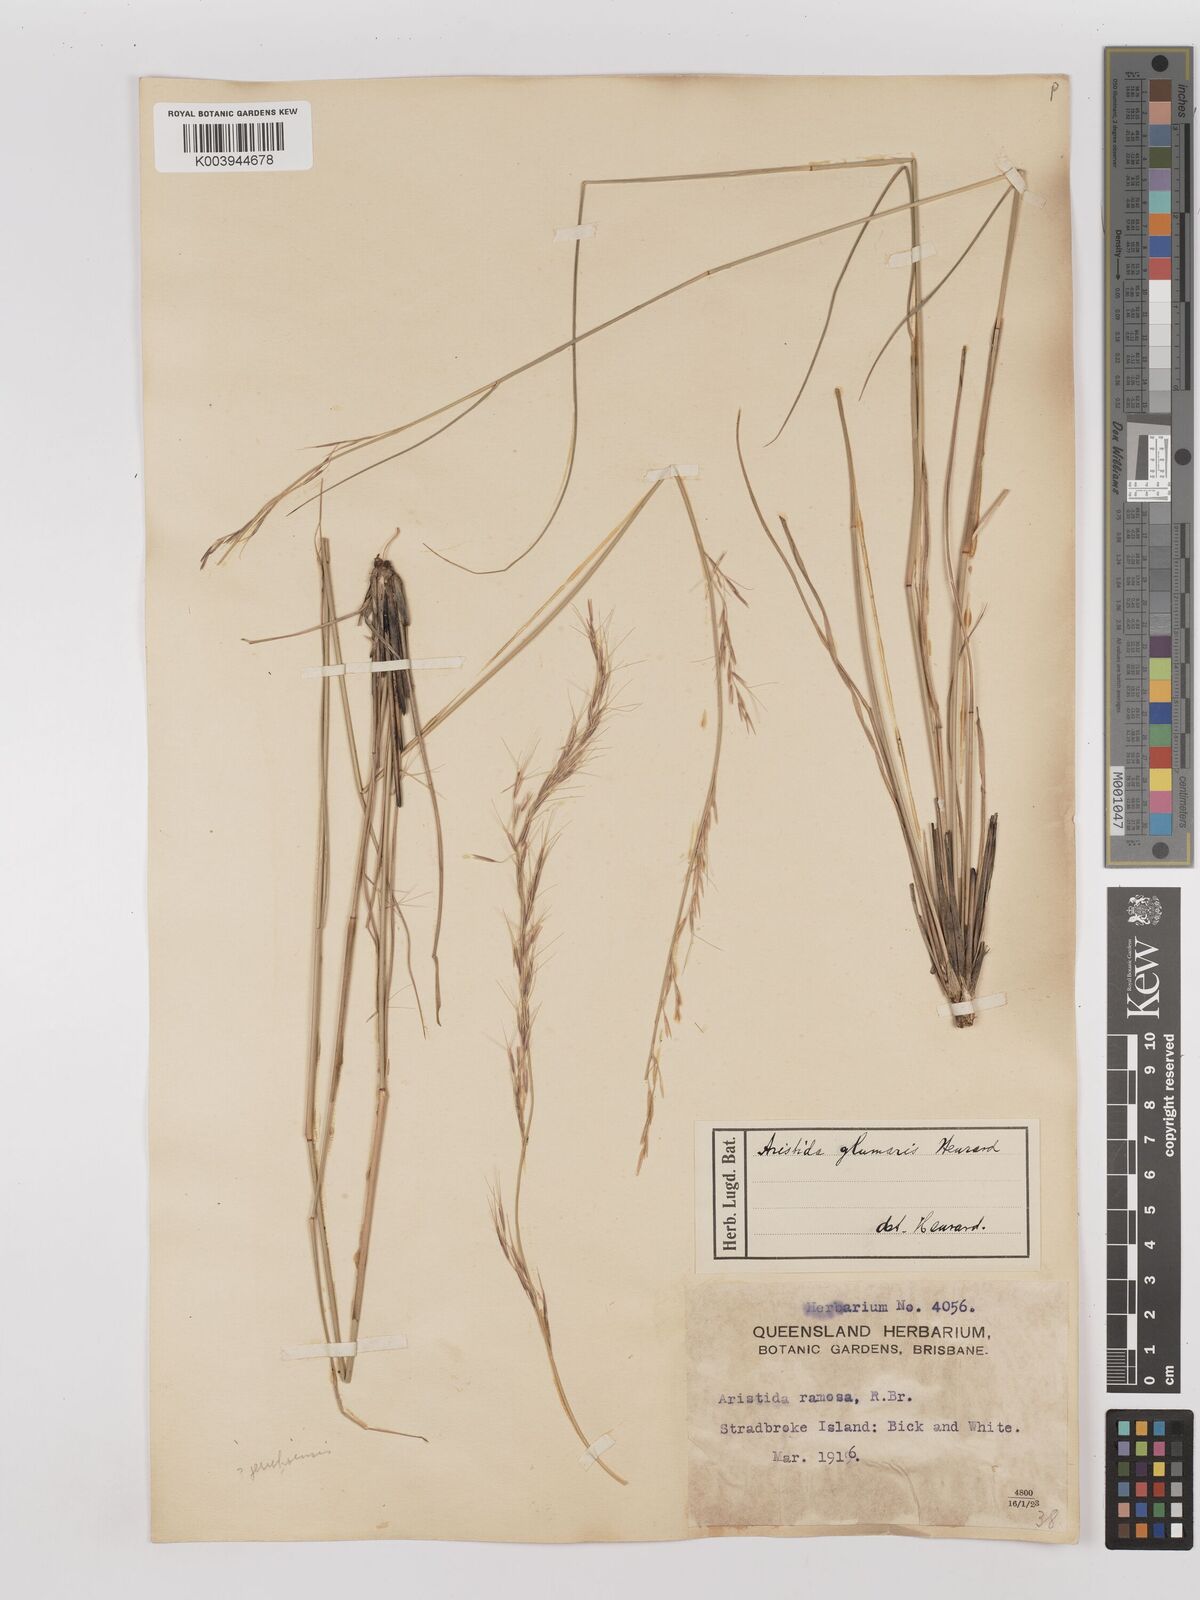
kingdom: Plantae
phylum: Tracheophyta
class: Liliopsida
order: Poales
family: Poaceae
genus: Aristida
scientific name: Aristida calycina
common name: Dark wire grass
